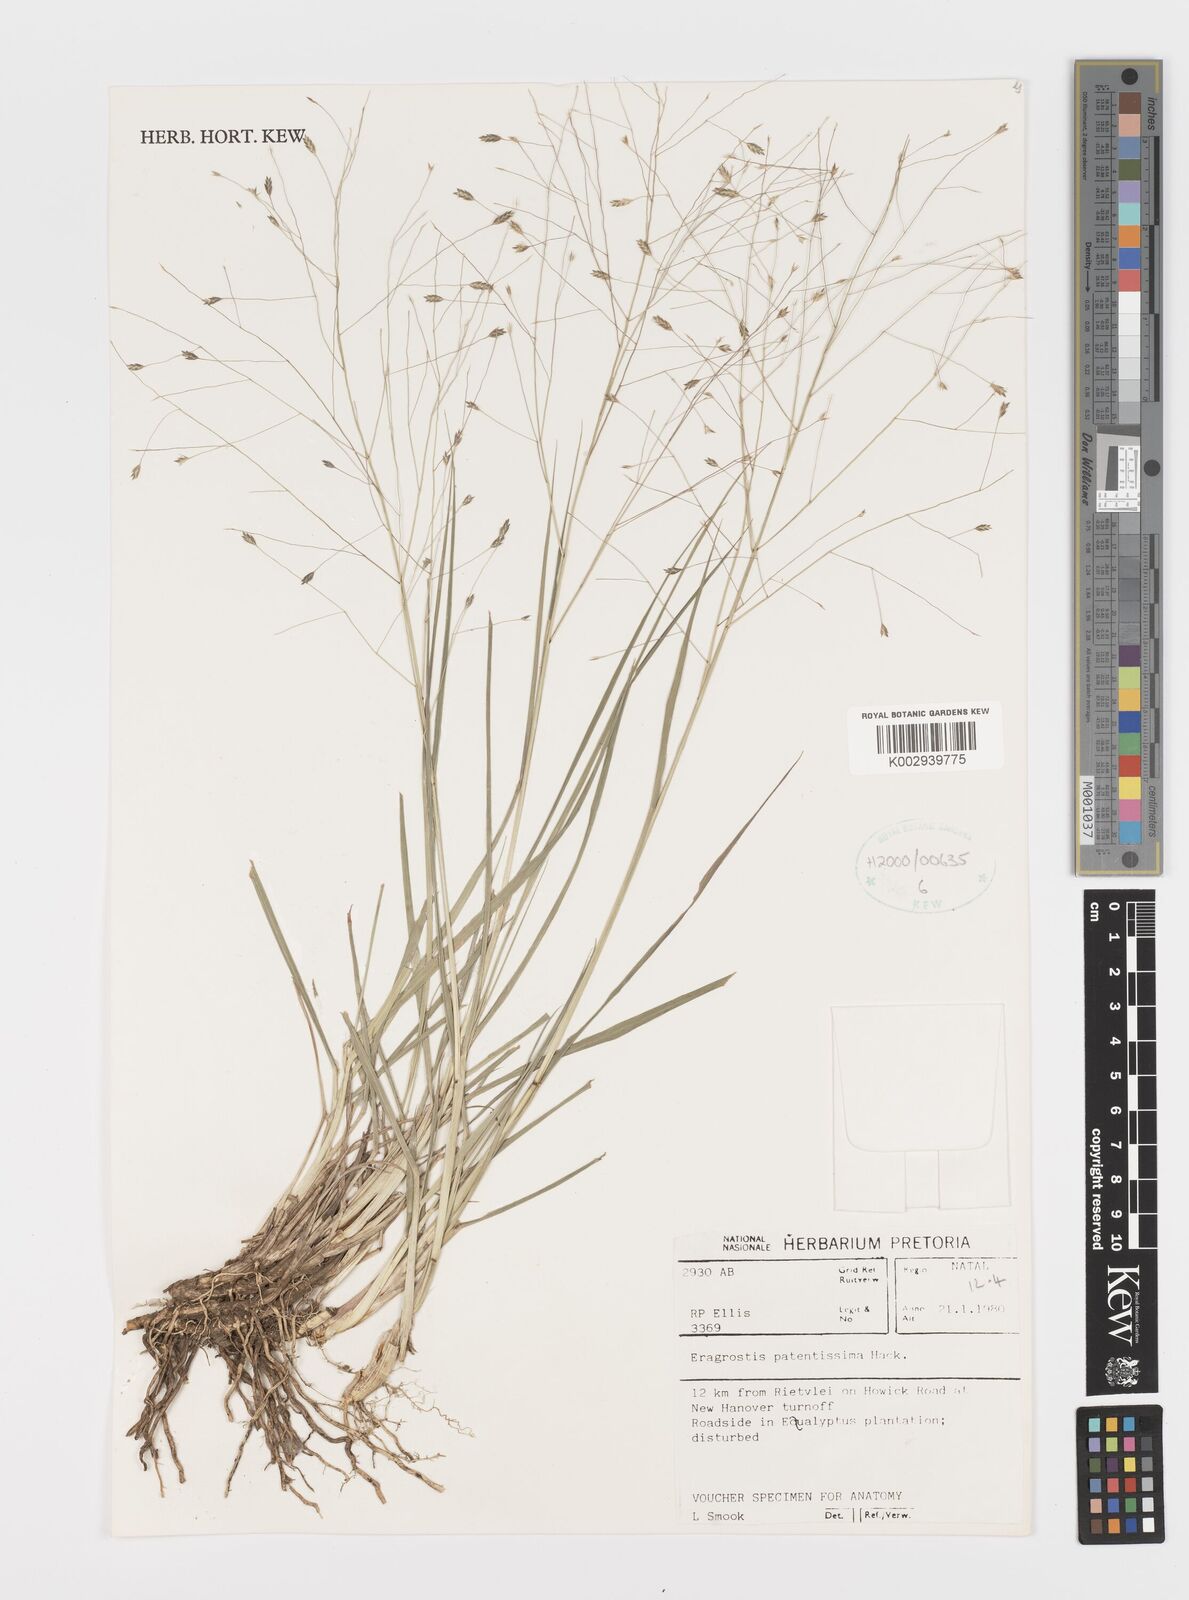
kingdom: Plantae
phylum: Tracheophyta
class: Liliopsida
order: Poales
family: Poaceae
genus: Eragrostis
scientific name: Eragrostis patentissima
